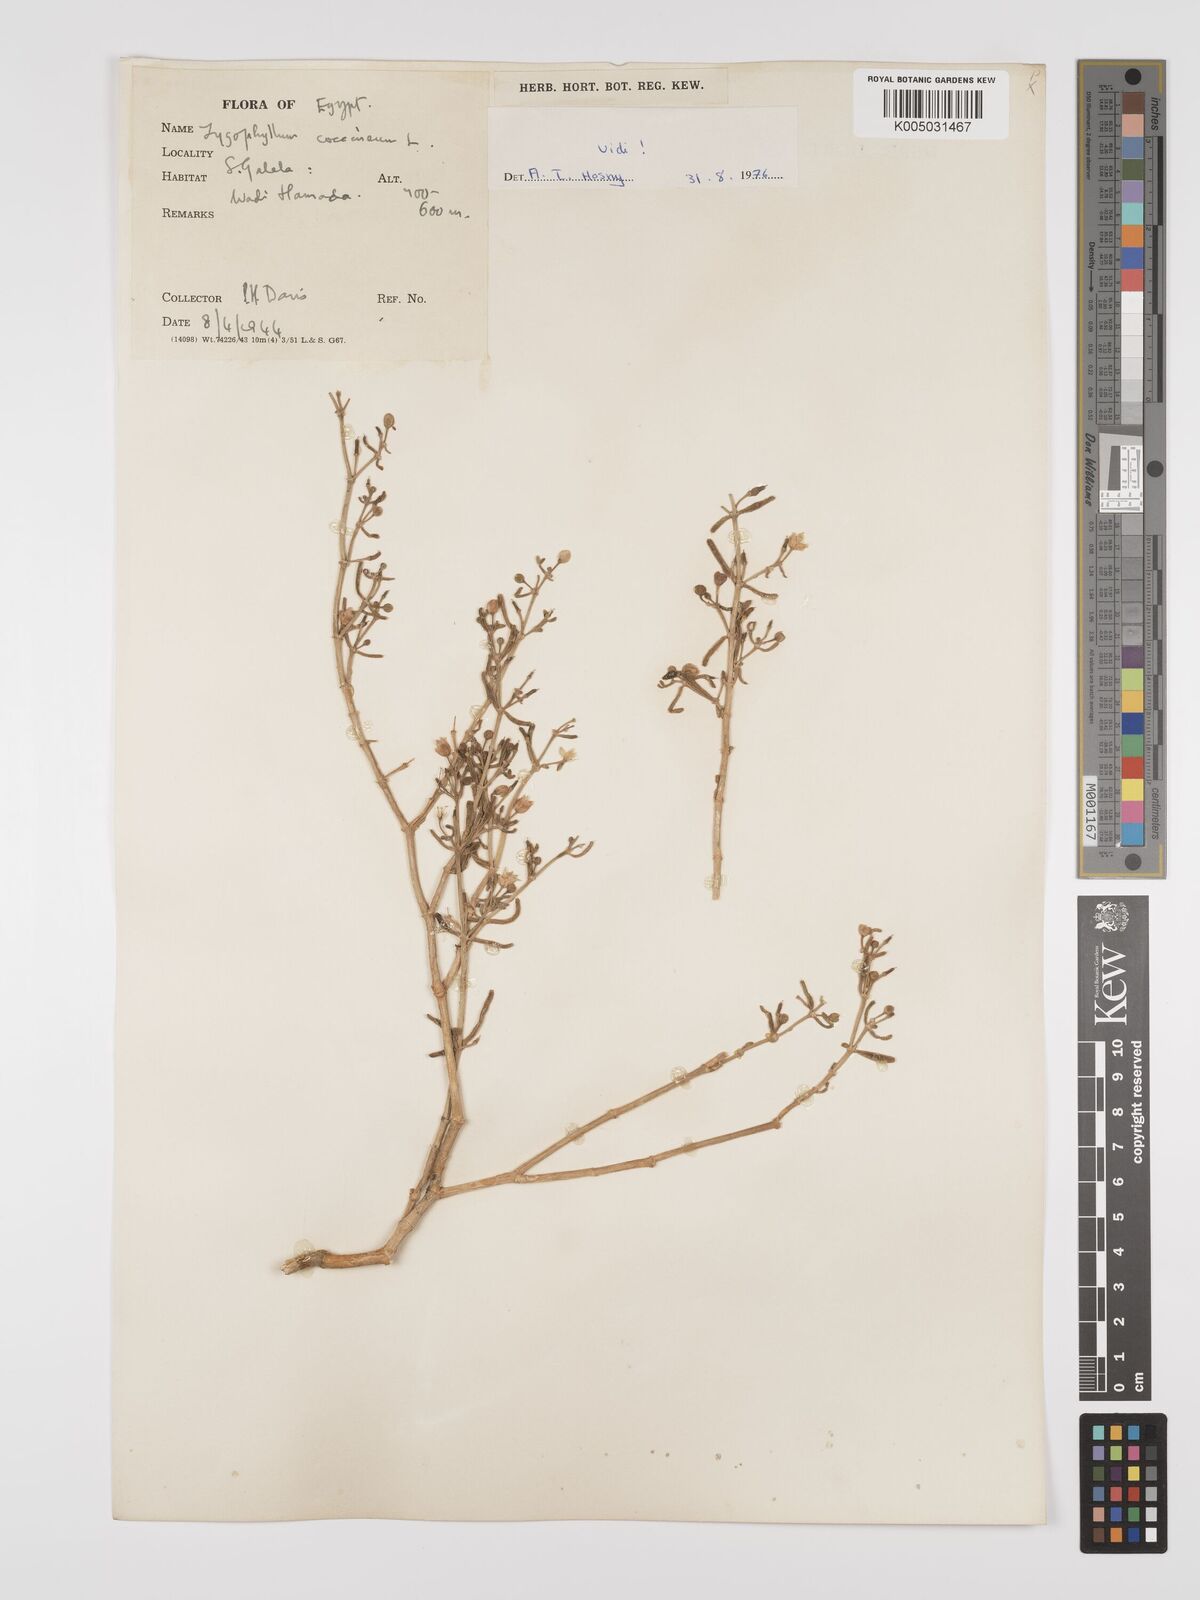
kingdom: Plantae
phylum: Tracheophyta
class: Magnoliopsida
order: Zygophyllales
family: Zygophyllaceae
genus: Tetraena
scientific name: Tetraena coccinea
